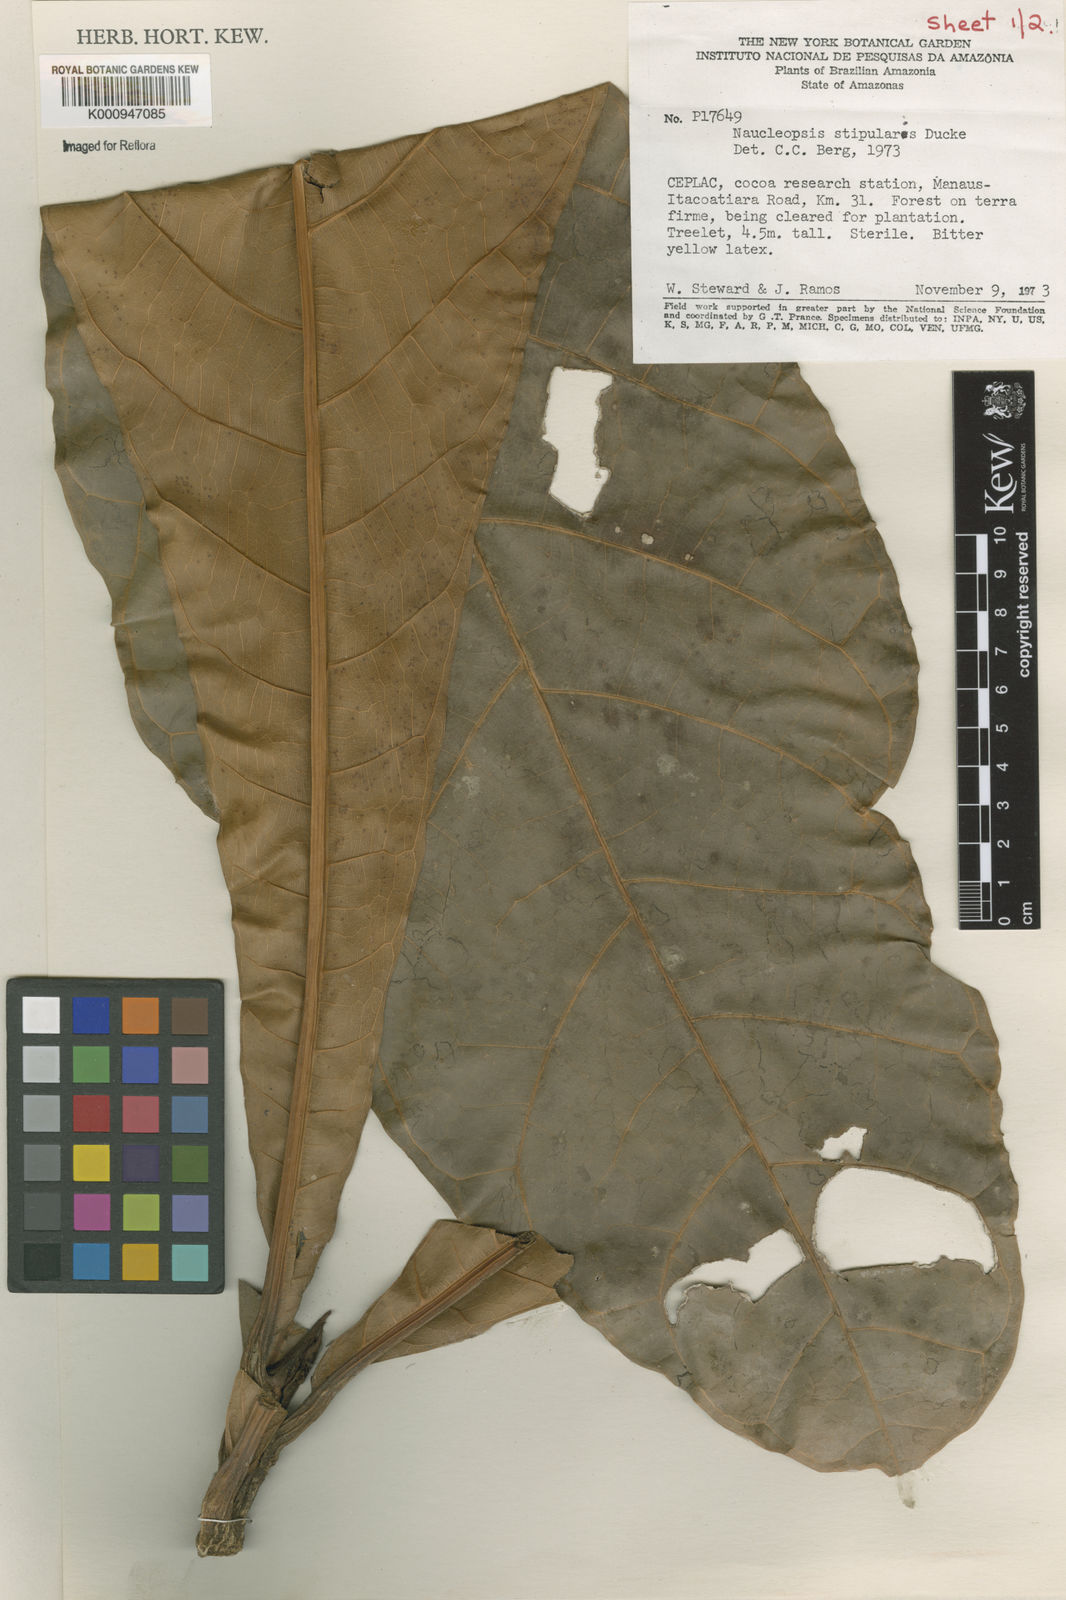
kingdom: Plantae
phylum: Tracheophyta
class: Magnoliopsida
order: Rosales
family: Moraceae
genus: Naucleopsis
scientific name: Naucleopsis stipularis
